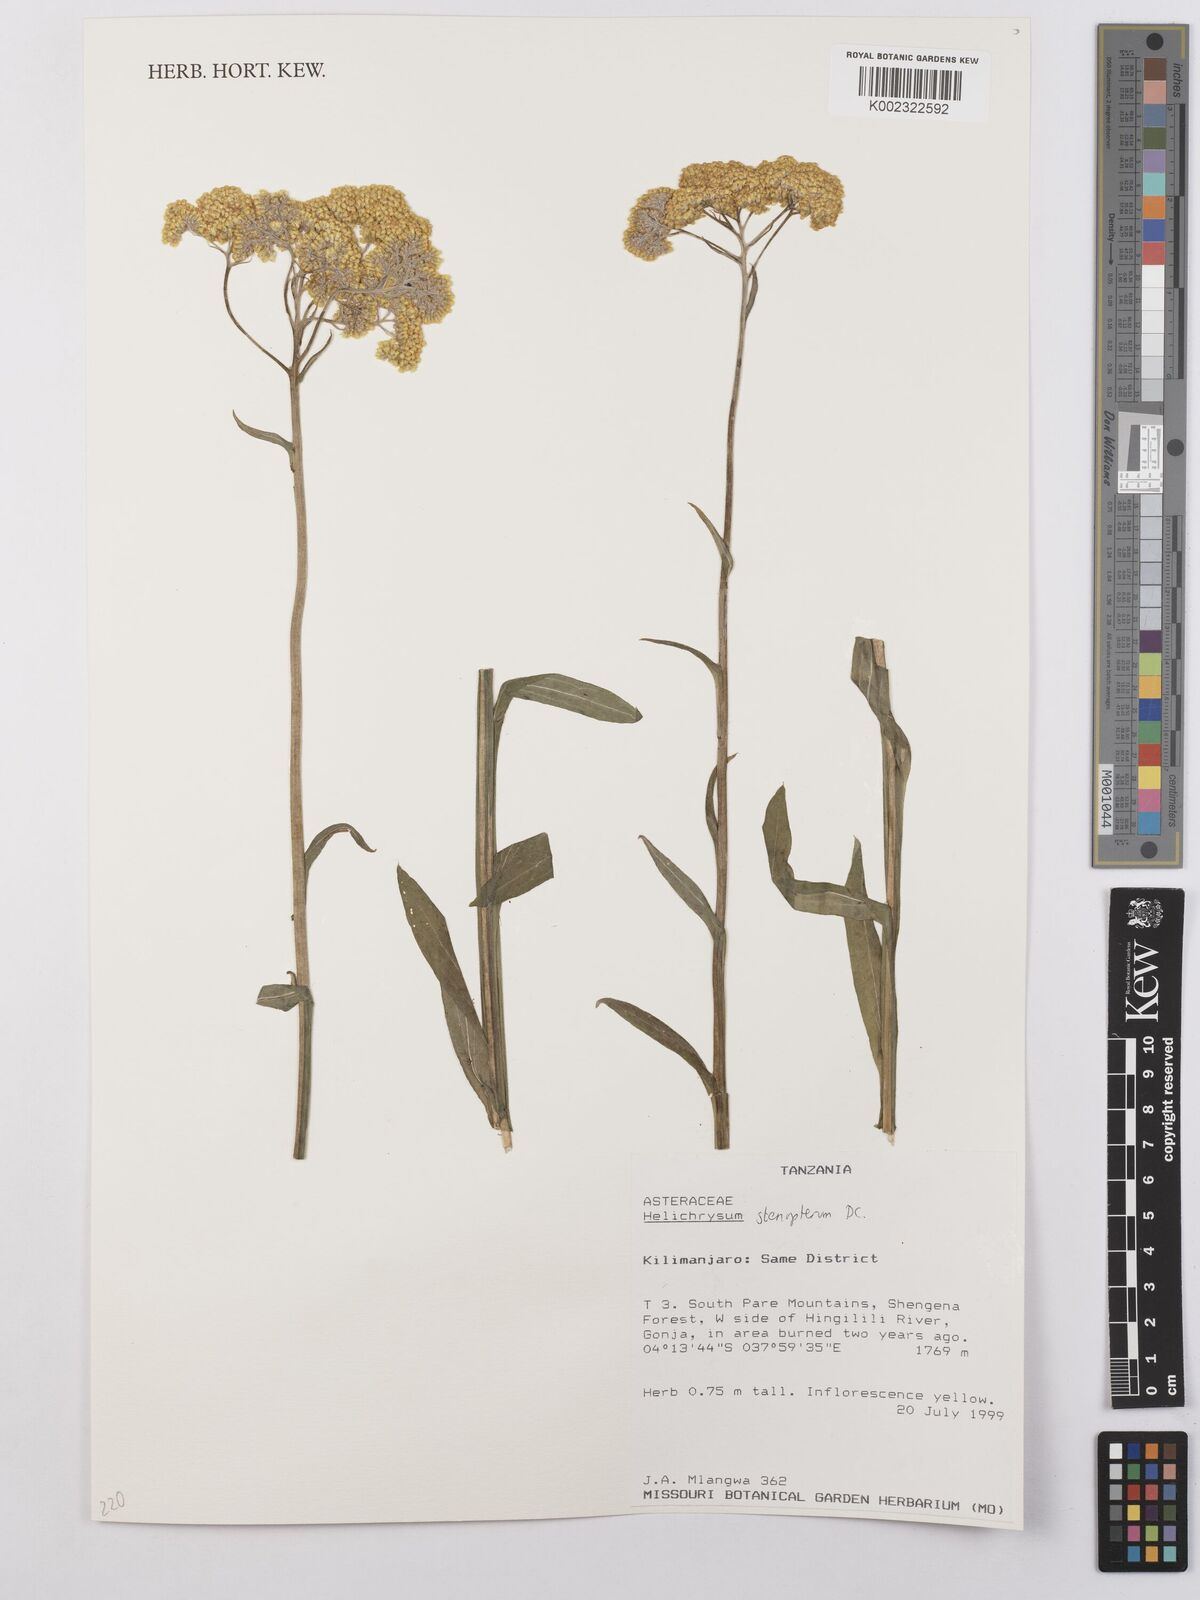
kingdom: Plantae
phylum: Tracheophyta
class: Magnoliopsida
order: Asterales
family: Asteraceae
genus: Helichrysum
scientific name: Helichrysum stenopterum
